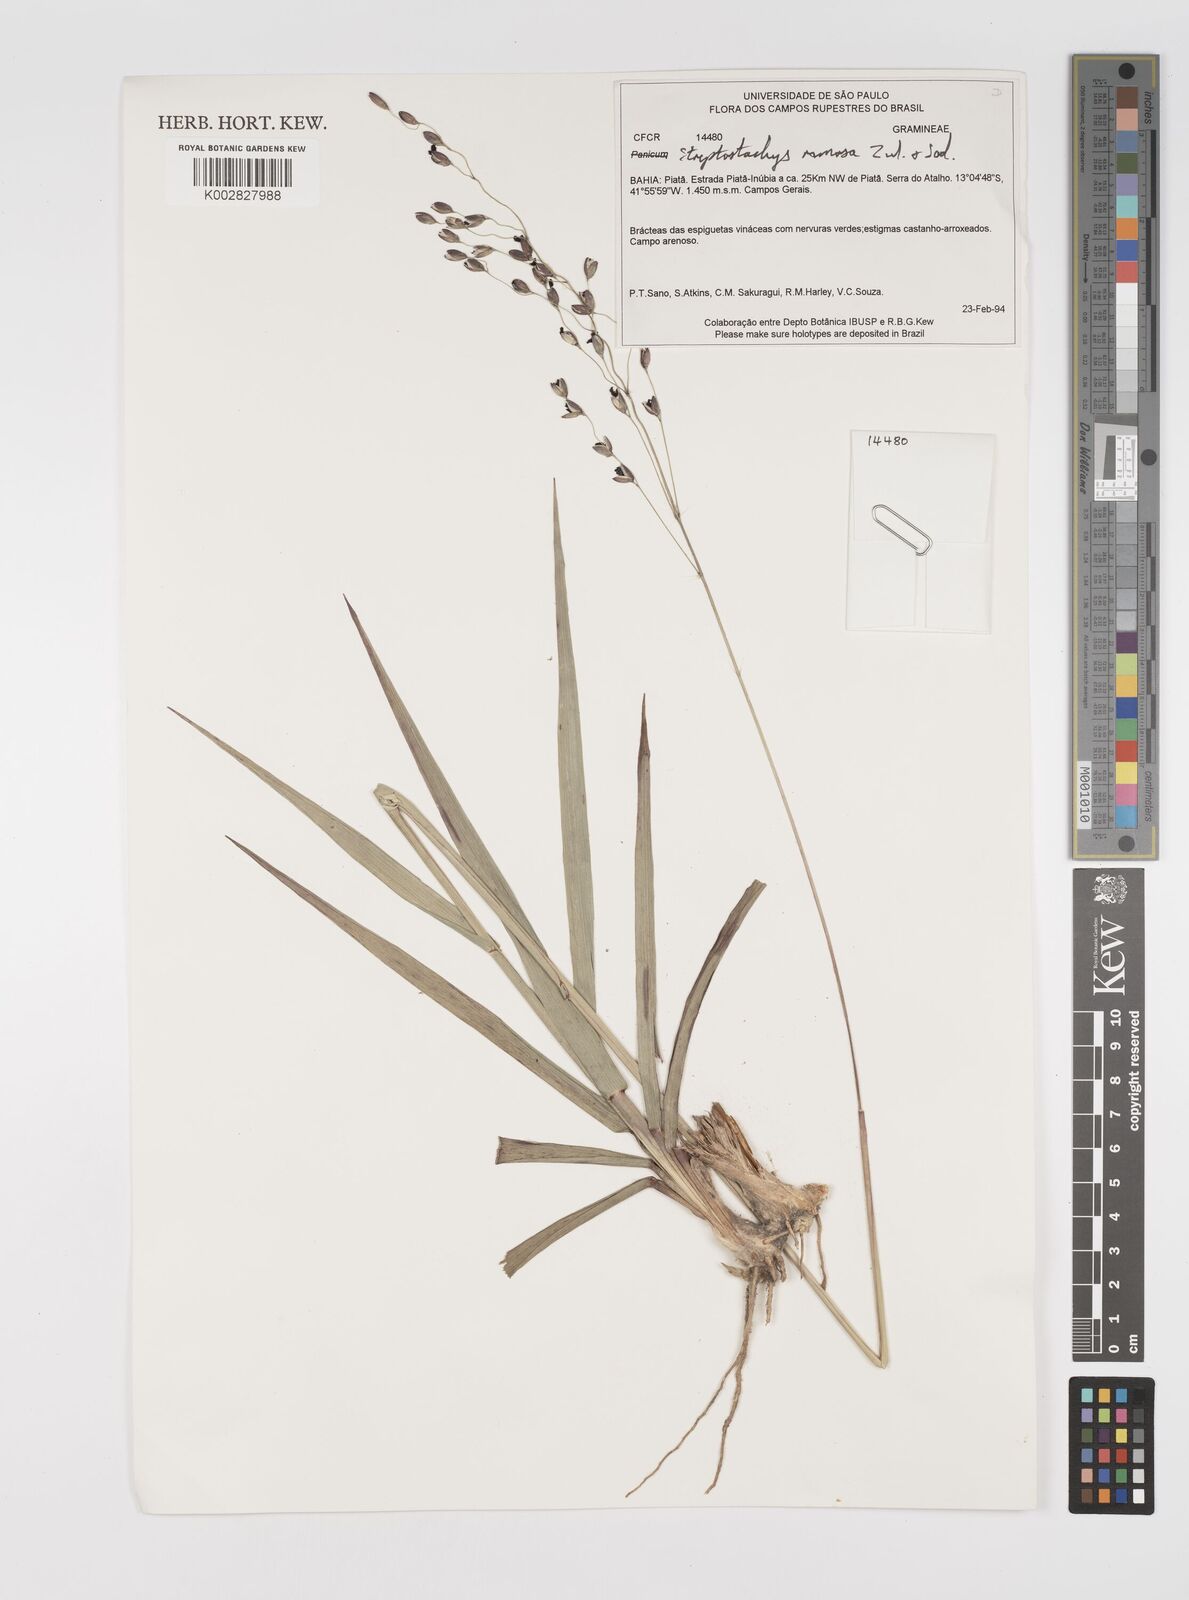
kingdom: Plantae
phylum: Tracheophyta
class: Liliopsida
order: Poales
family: Poaceae
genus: Oncorachis
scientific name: Oncorachis ramosa
